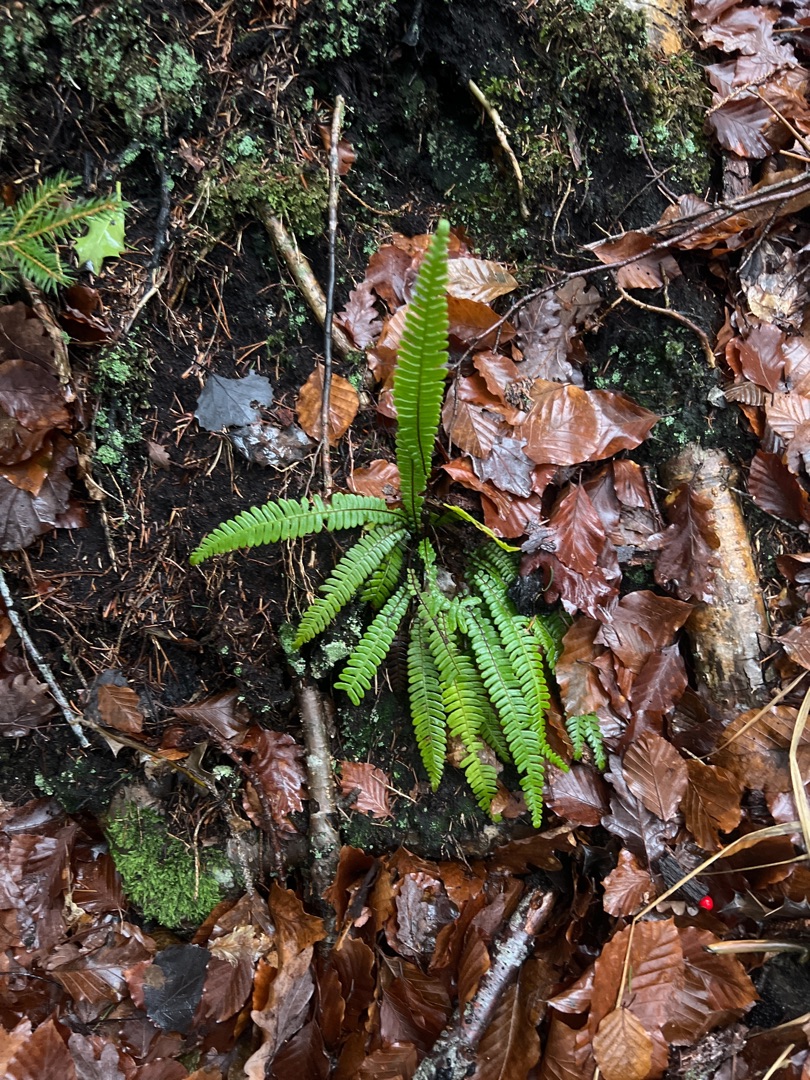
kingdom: Plantae
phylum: Tracheophyta
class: Polypodiopsida
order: Polypodiales
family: Blechnaceae
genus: Struthiopteris
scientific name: Struthiopteris spicant
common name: Kambregne
